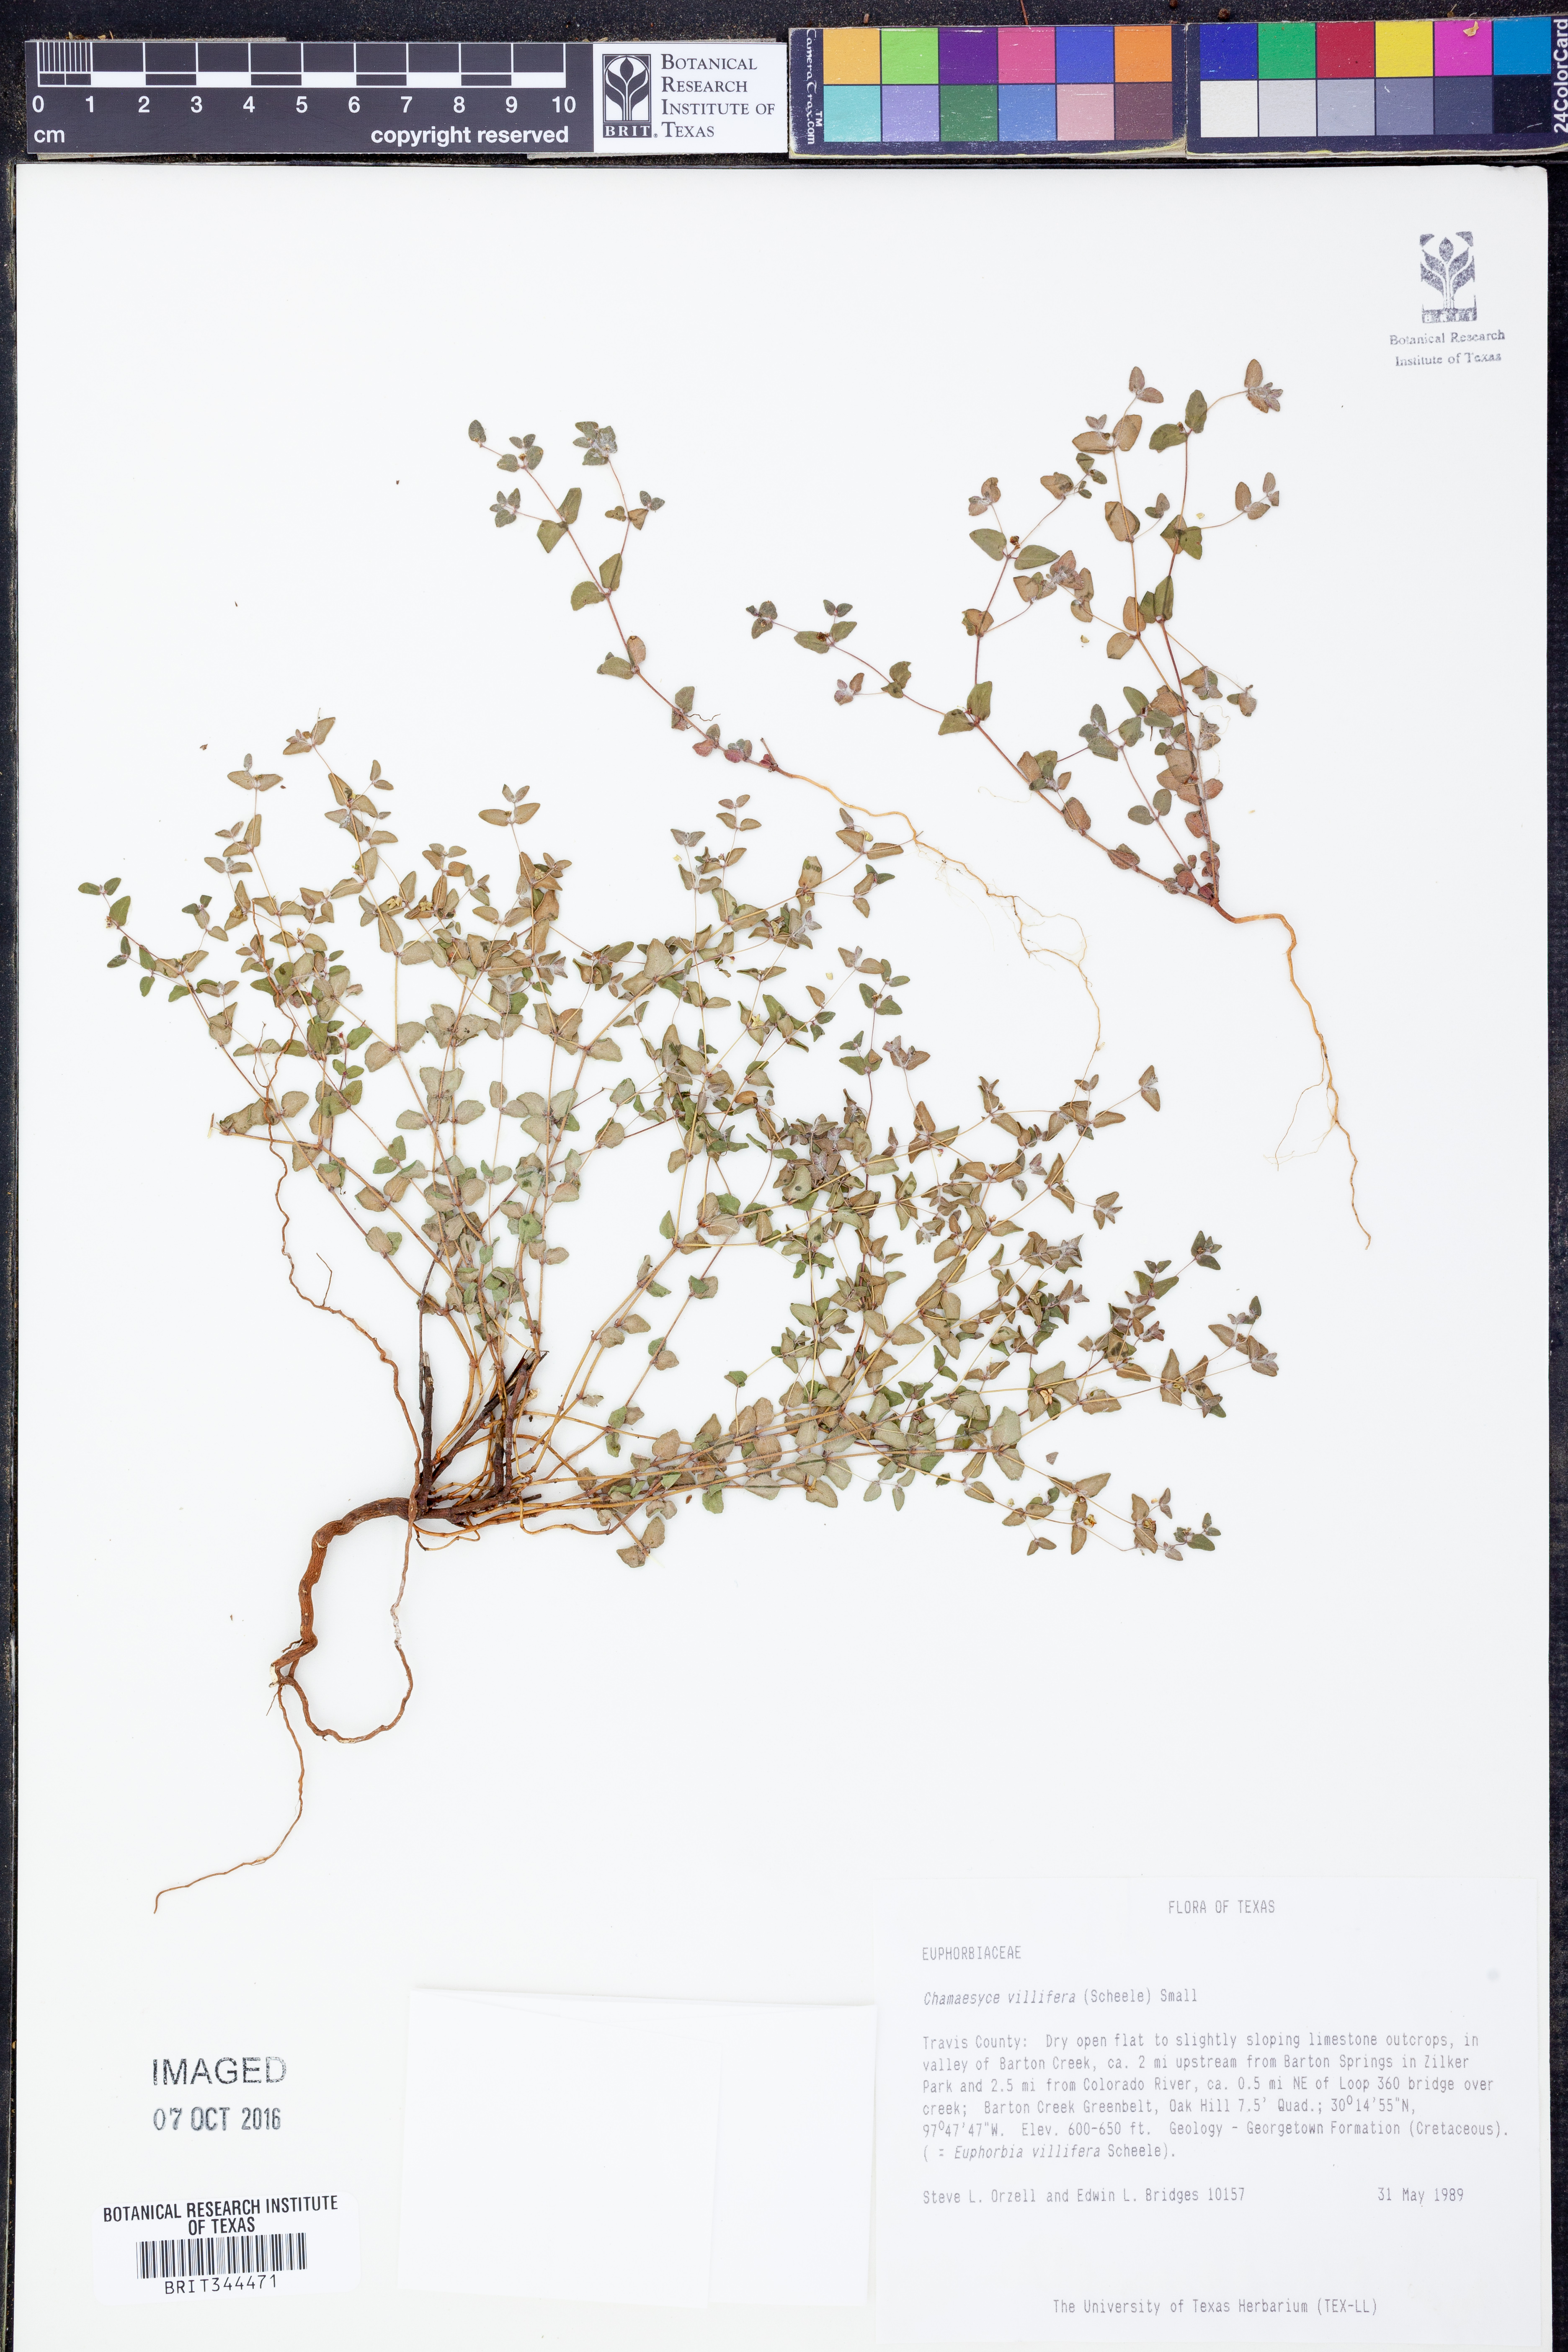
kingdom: Plantae
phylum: Tracheophyta
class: Magnoliopsida
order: Malpighiales
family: Euphorbiaceae
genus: Euphorbia
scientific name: Euphorbia micractina
